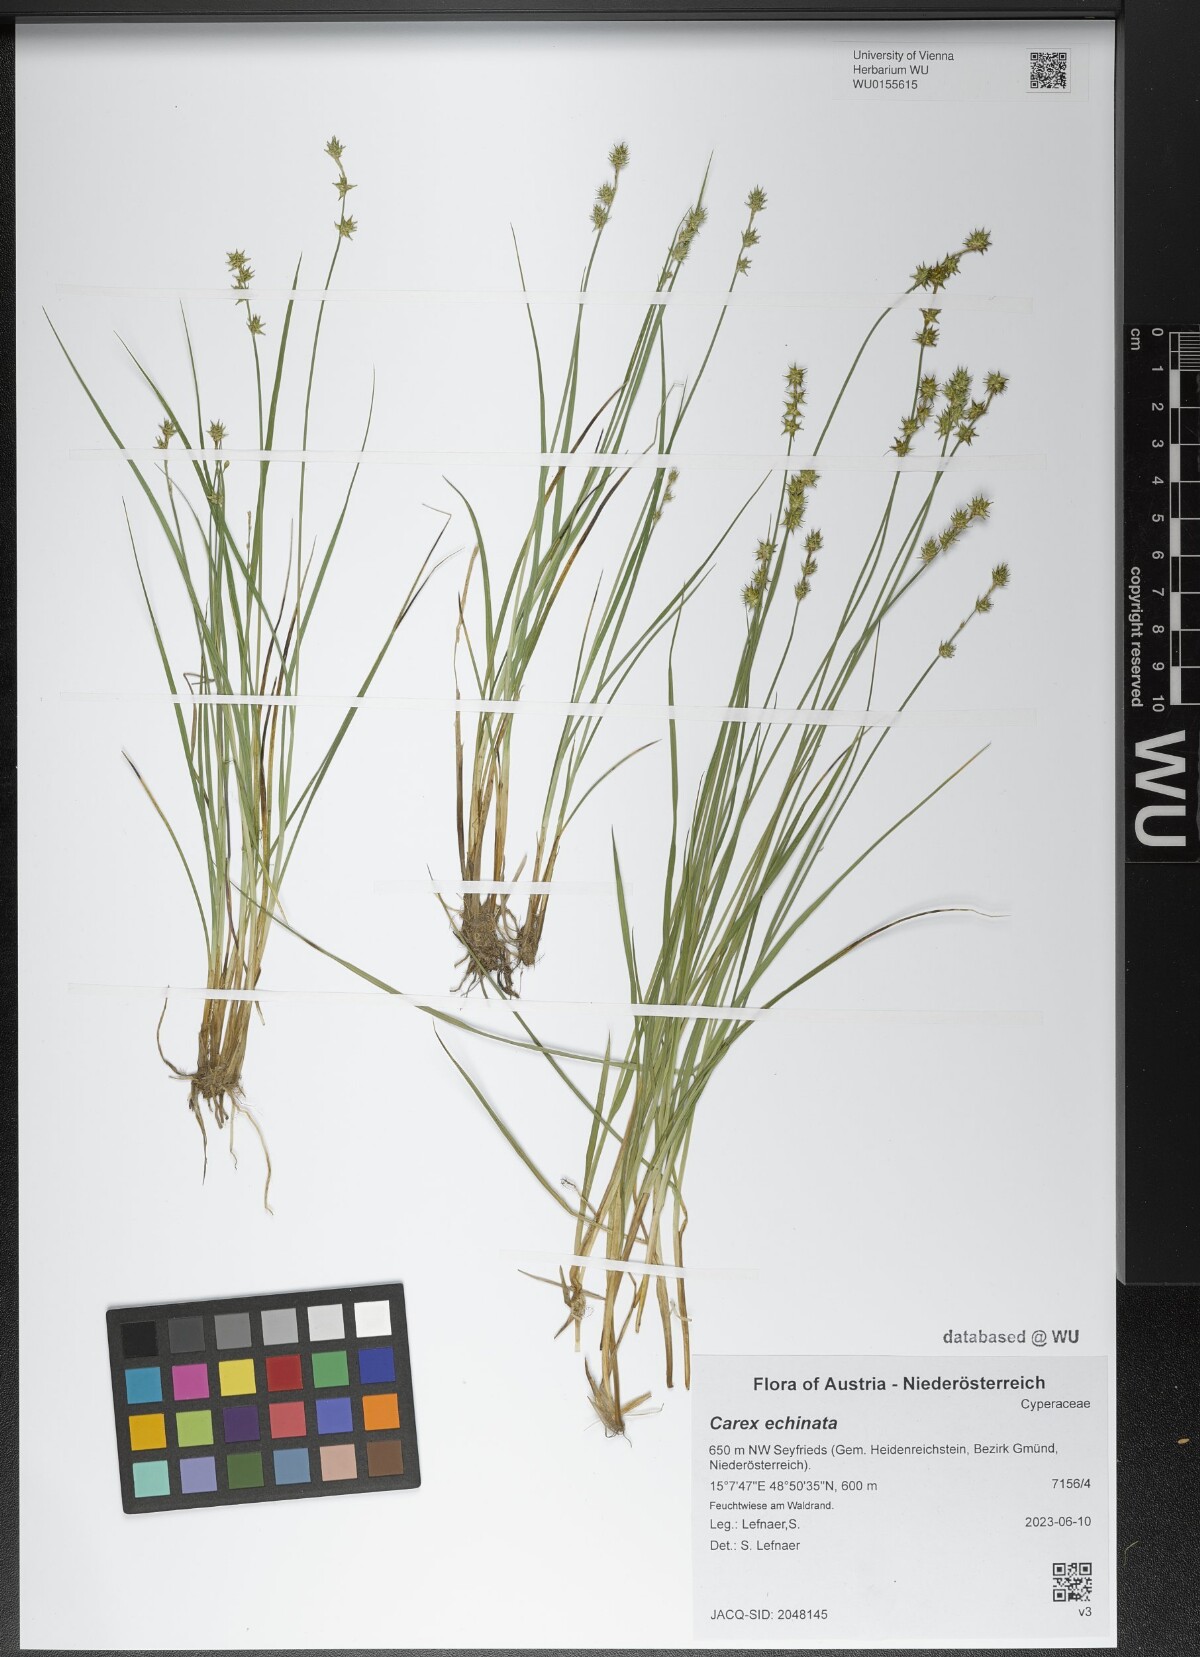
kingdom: Plantae
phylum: Tracheophyta
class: Liliopsida
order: Poales
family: Cyperaceae
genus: Carex
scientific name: Carex echinata
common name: Star sedge
